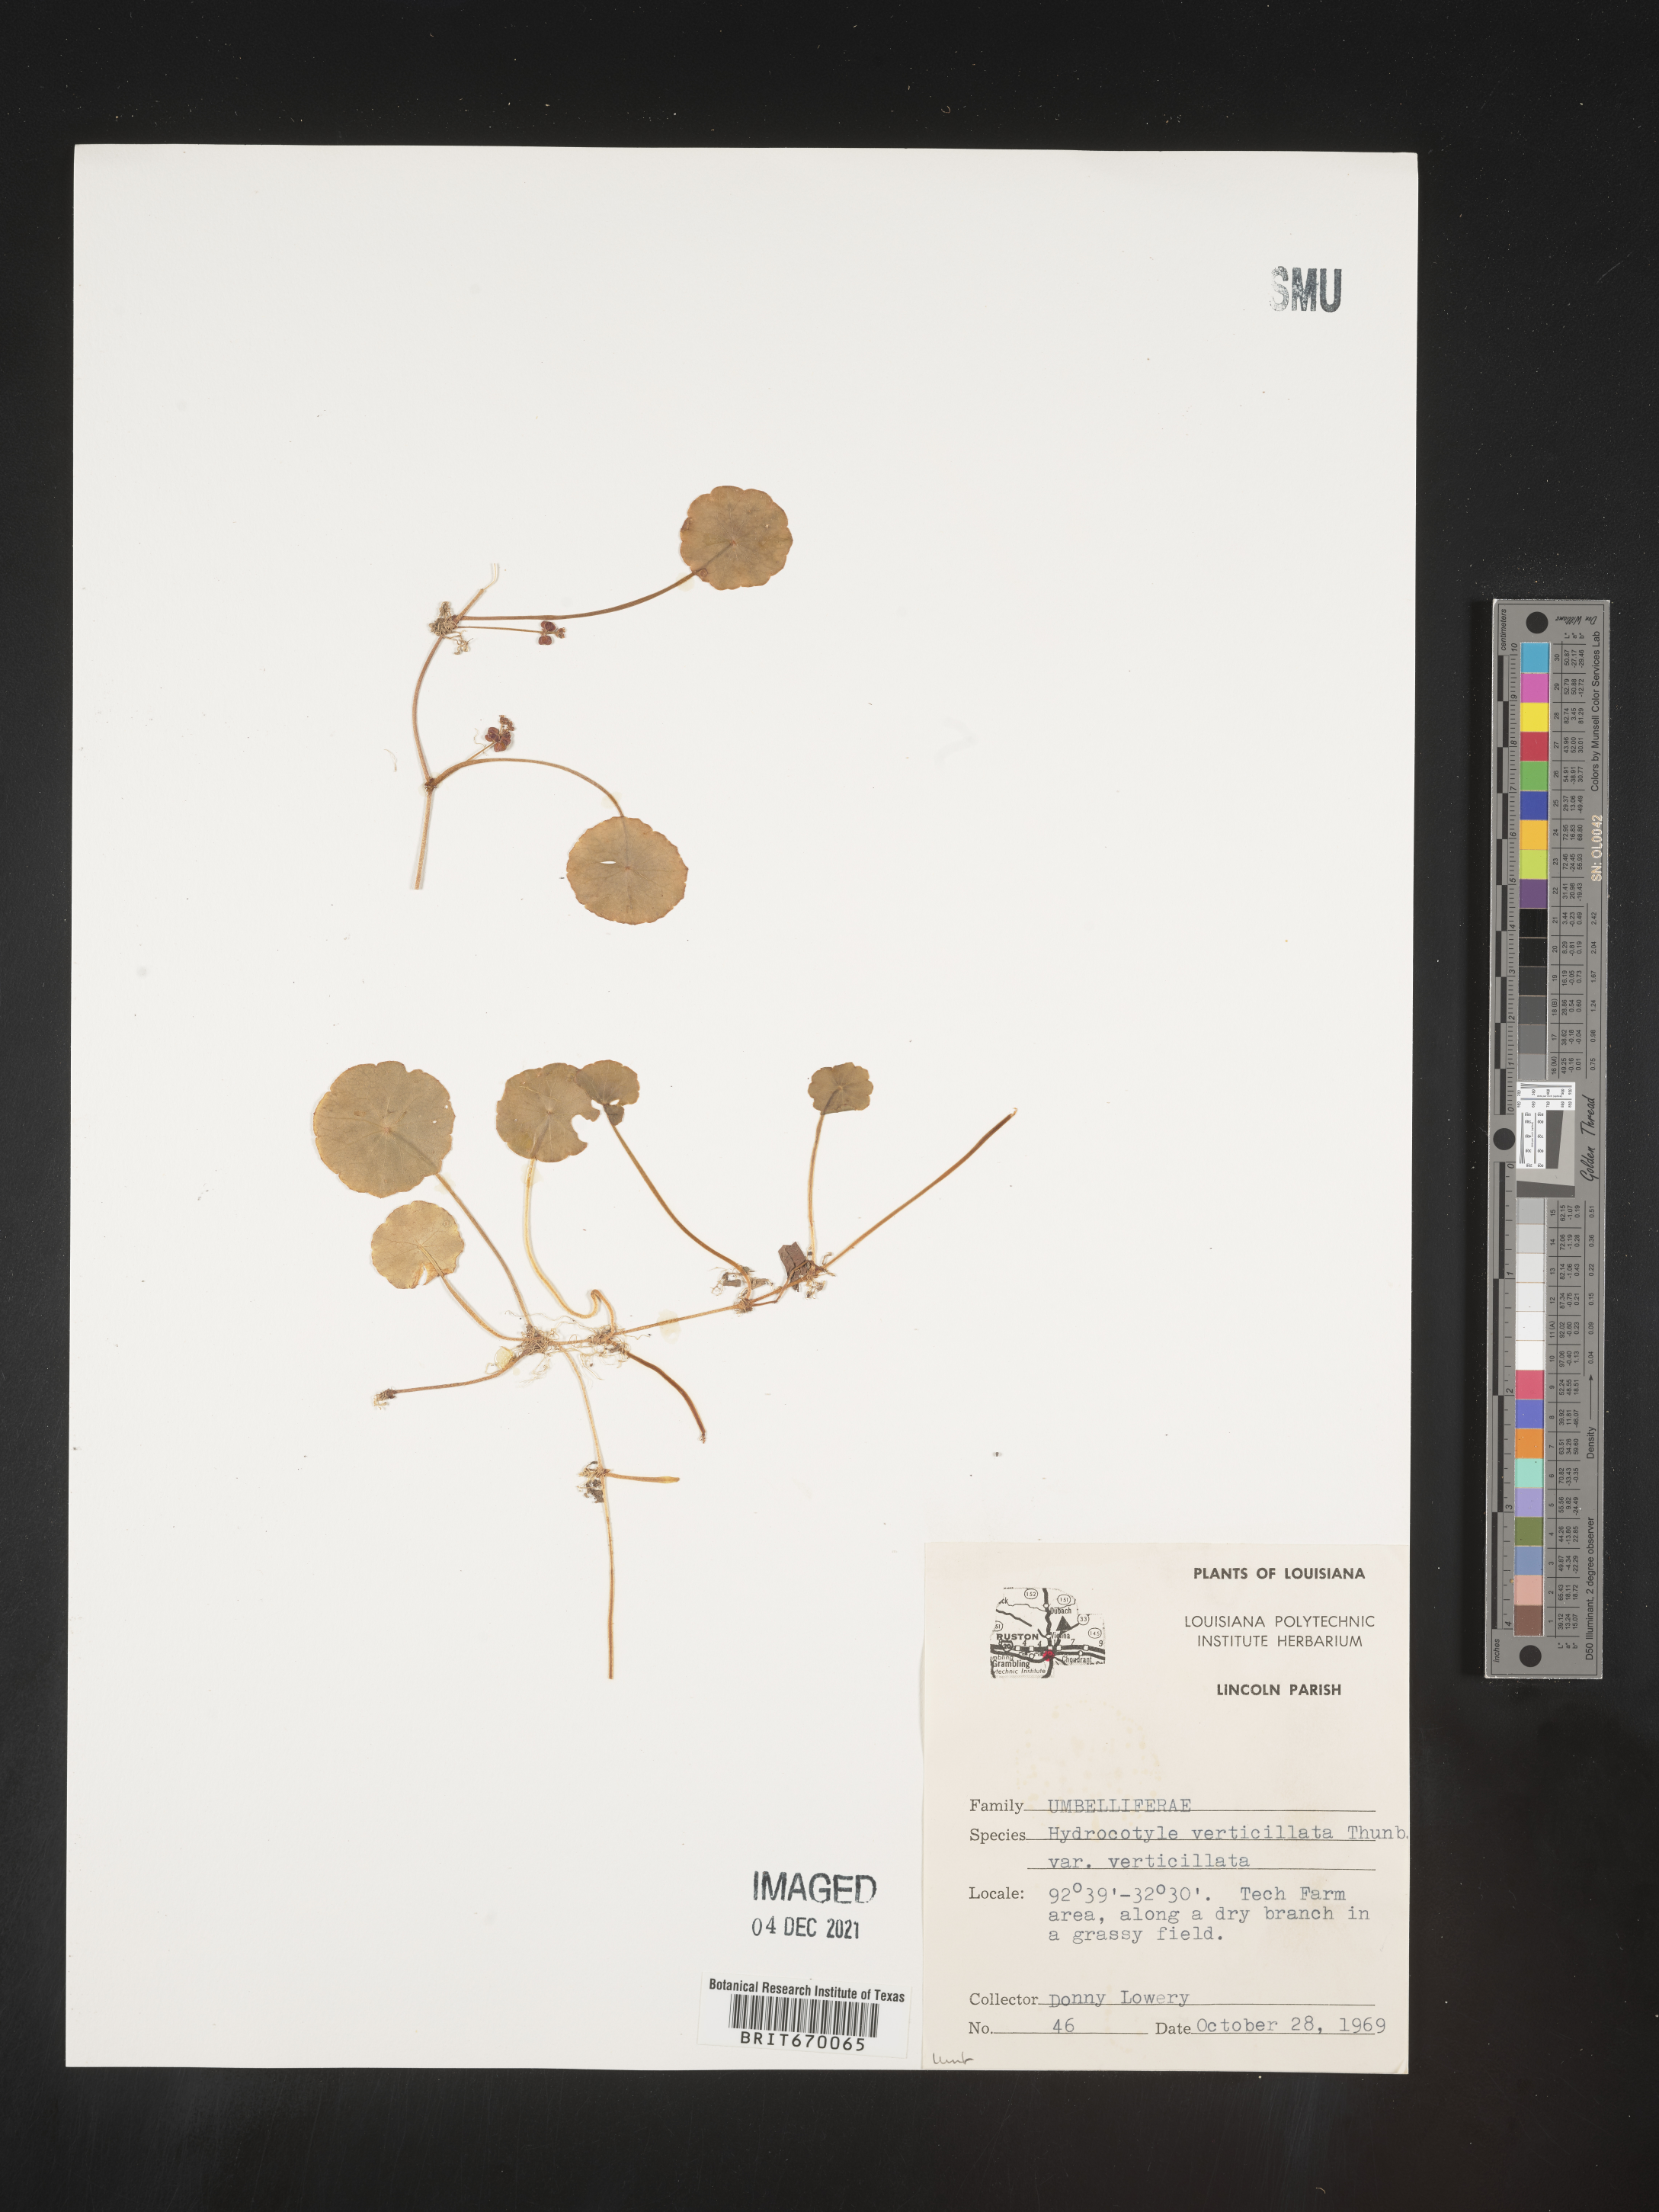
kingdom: Plantae
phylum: Tracheophyta
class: Magnoliopsida
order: Apiales
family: Araliaceae
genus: Hydrocotyle
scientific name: Hydrocotyle verticillata
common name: Whorled marshpennywort
